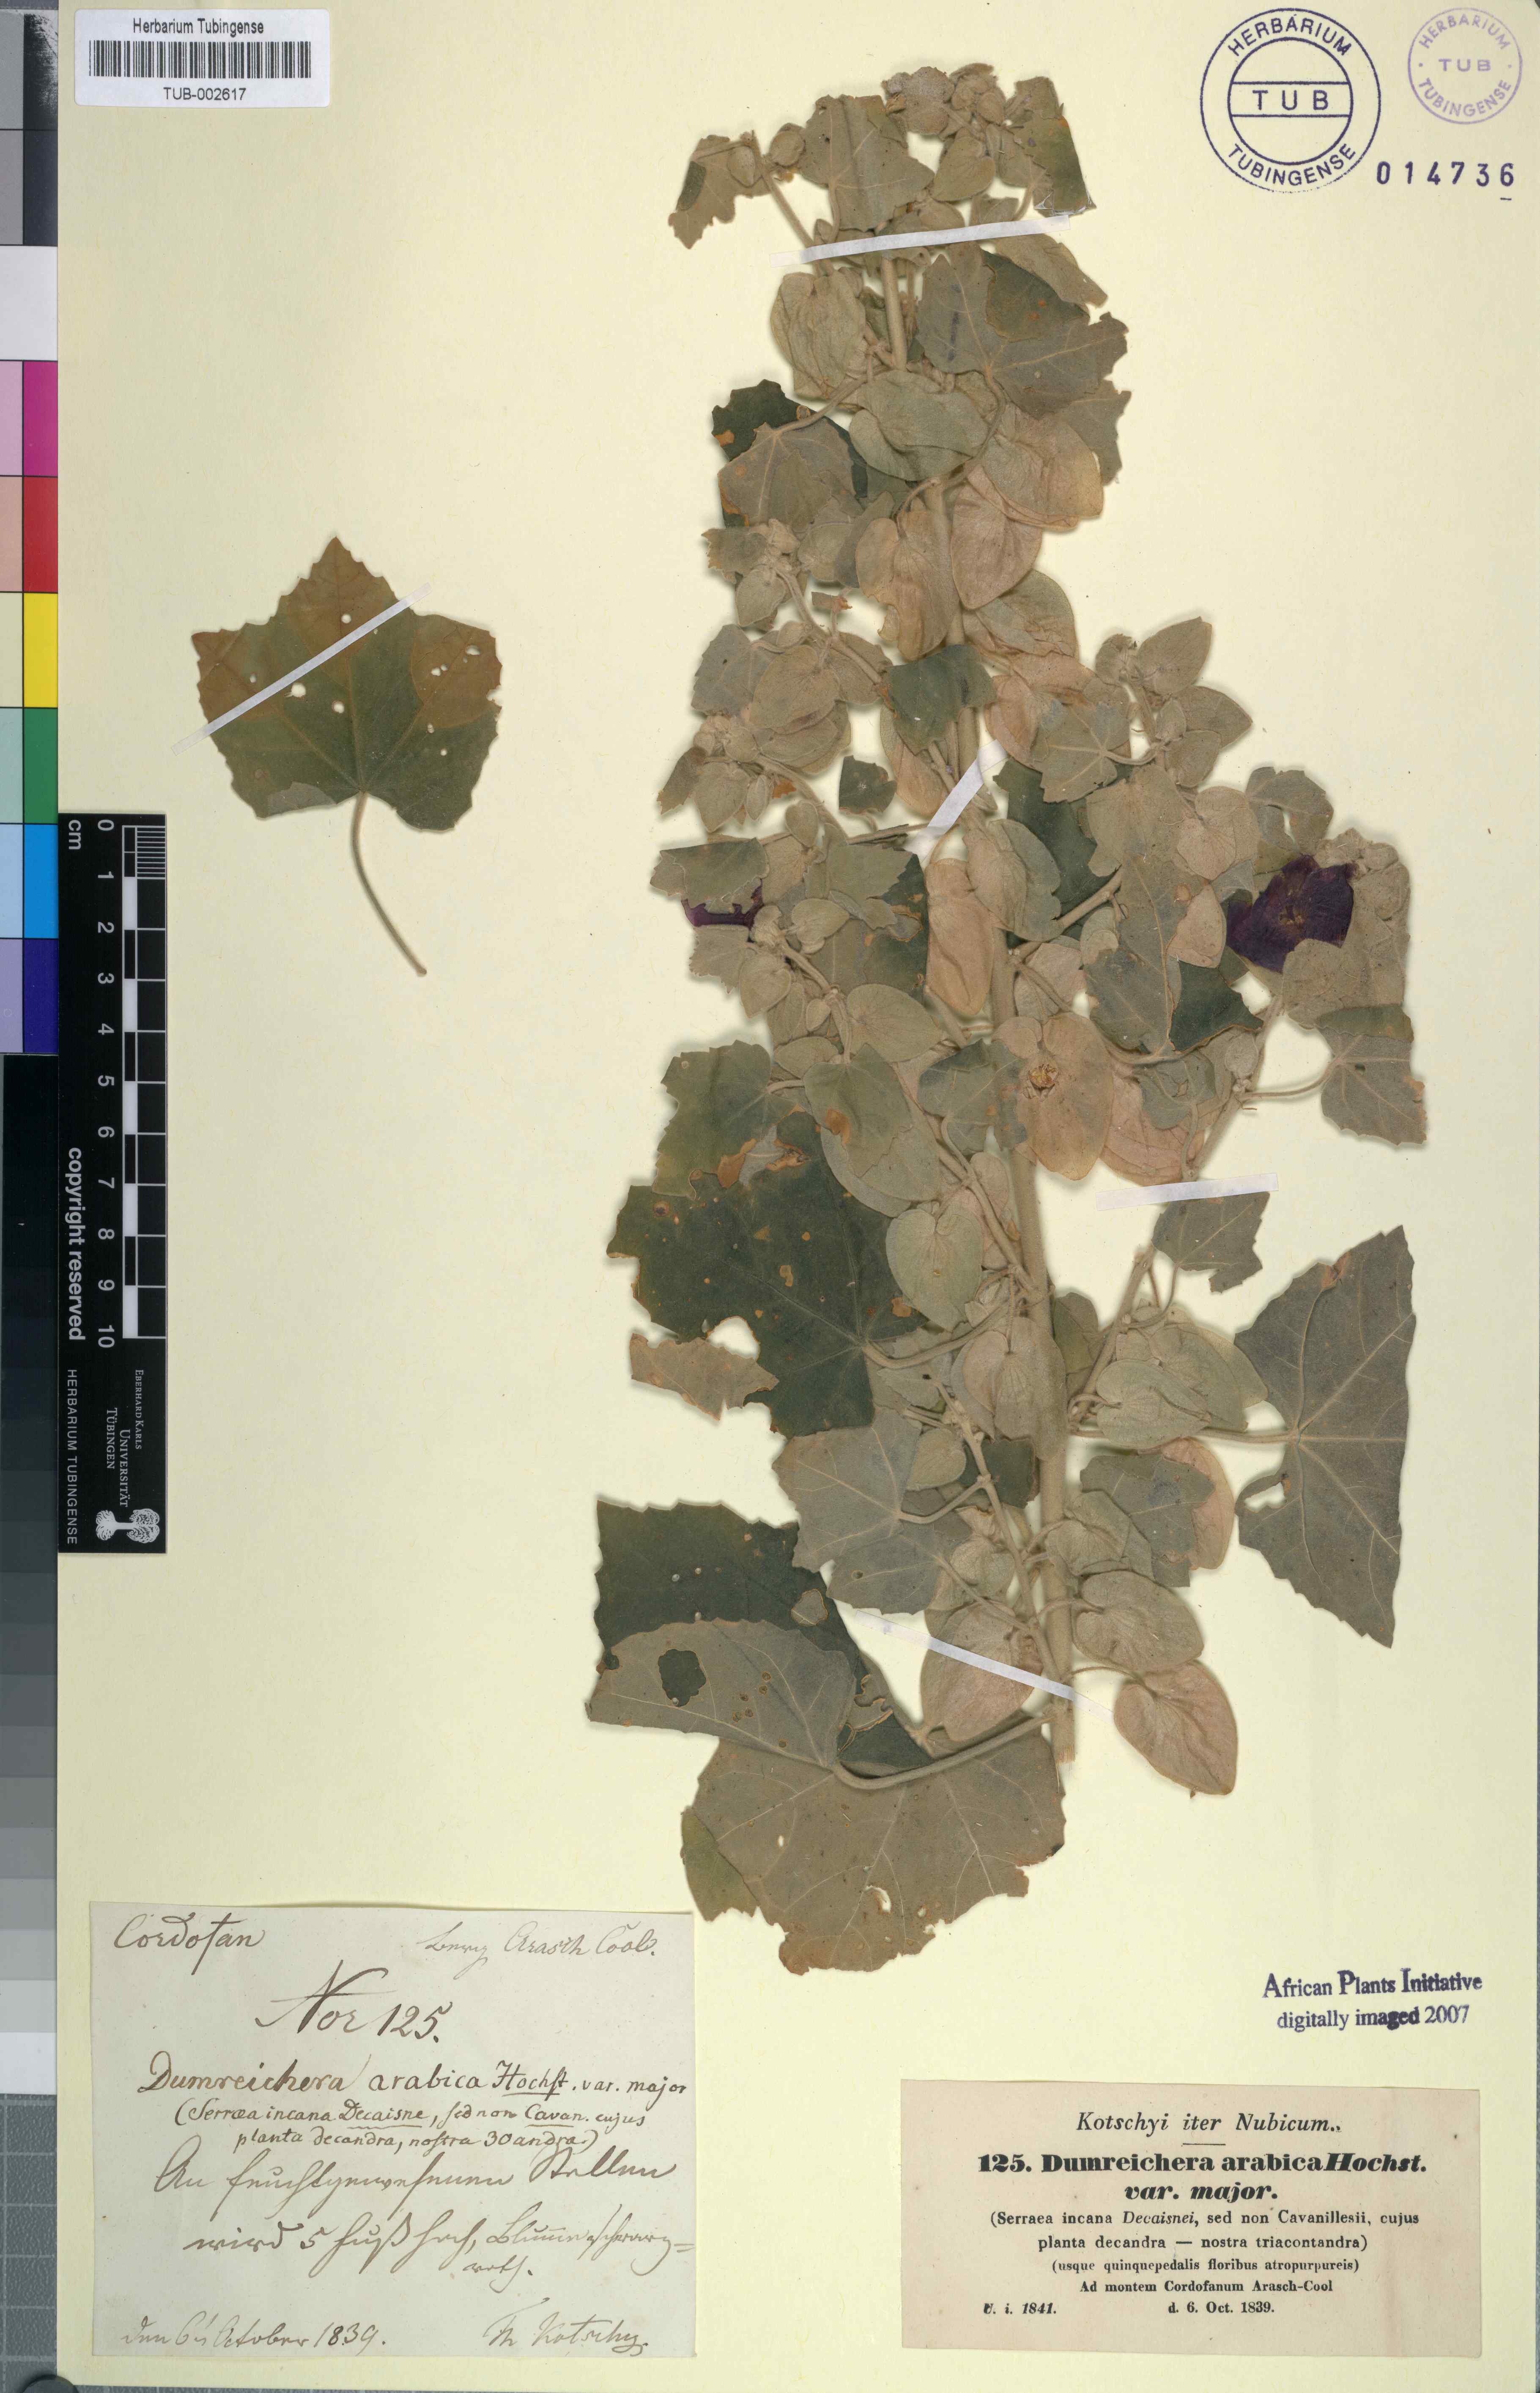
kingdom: Plantae
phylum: Tracheophyta
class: Magnoliopsida
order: Malvales
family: Malvaceae
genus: Senra
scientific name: Senra incana
